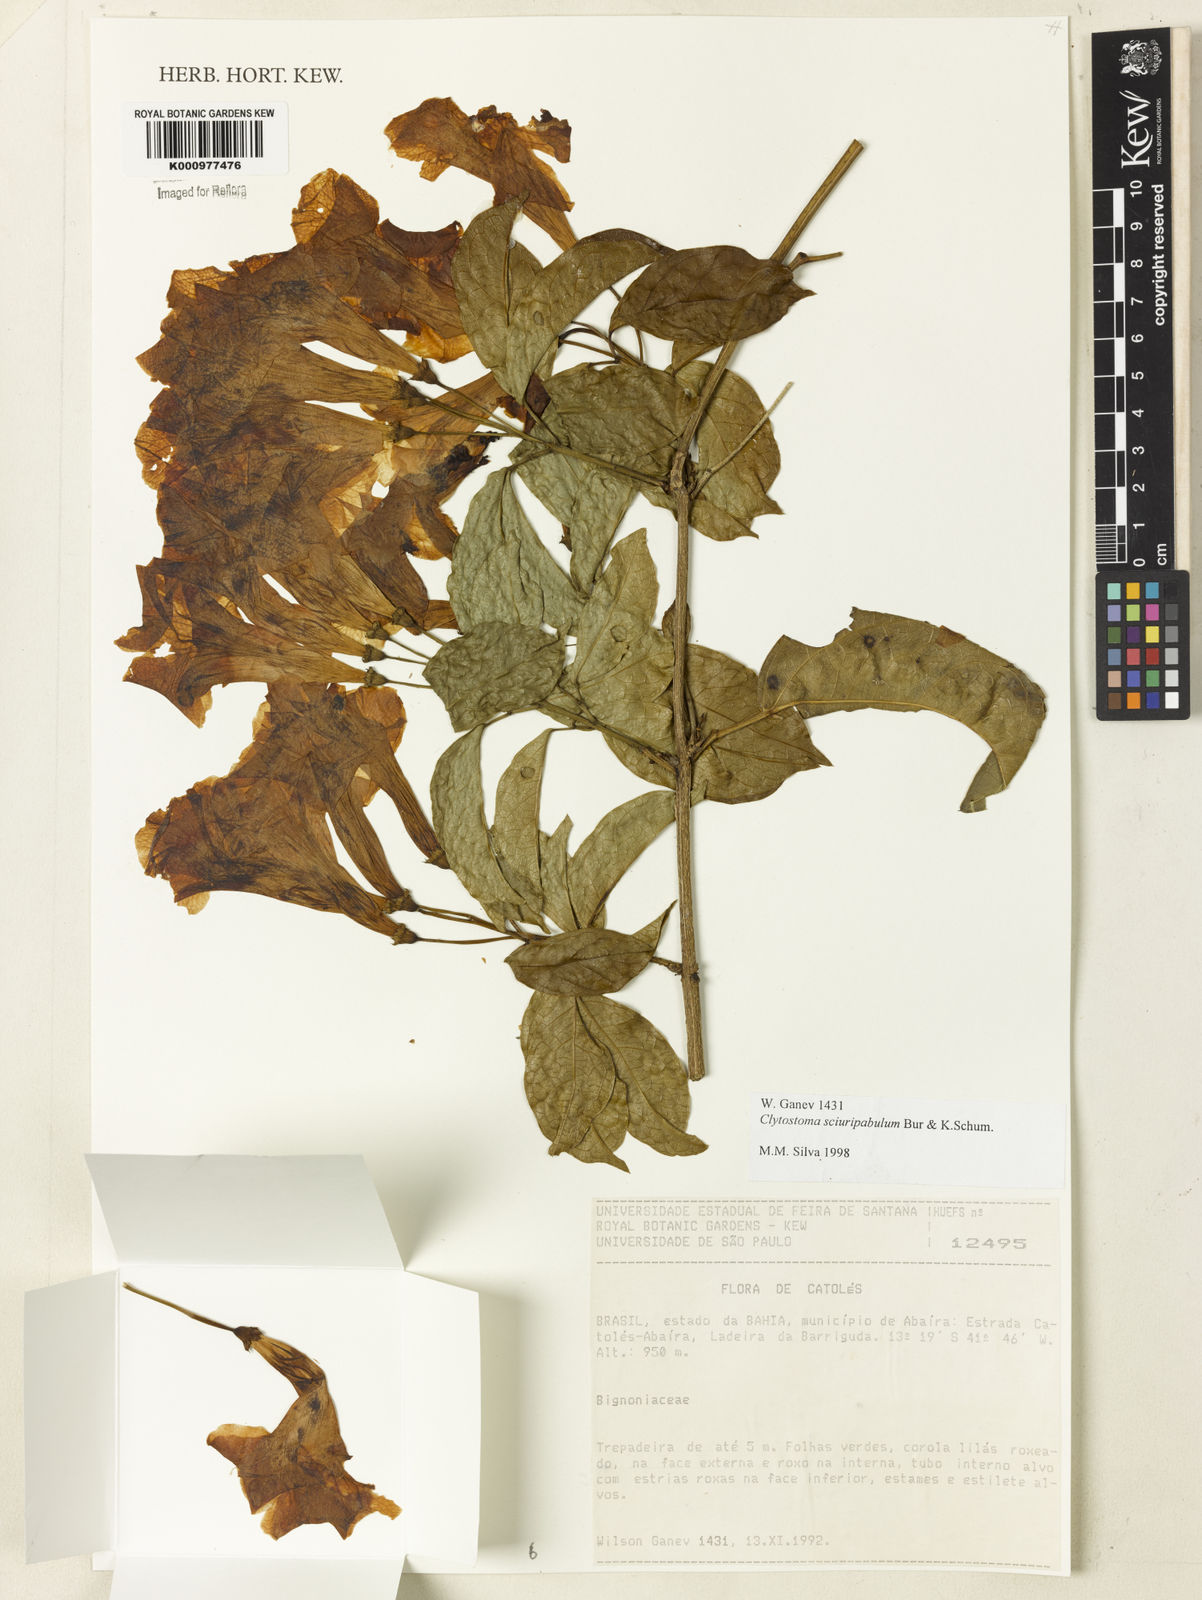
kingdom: Plantae
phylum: Tracheophyta
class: Magnoliopsida
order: Lamiales
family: Bignoniaceae
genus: Bignonia
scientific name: Bignonia
